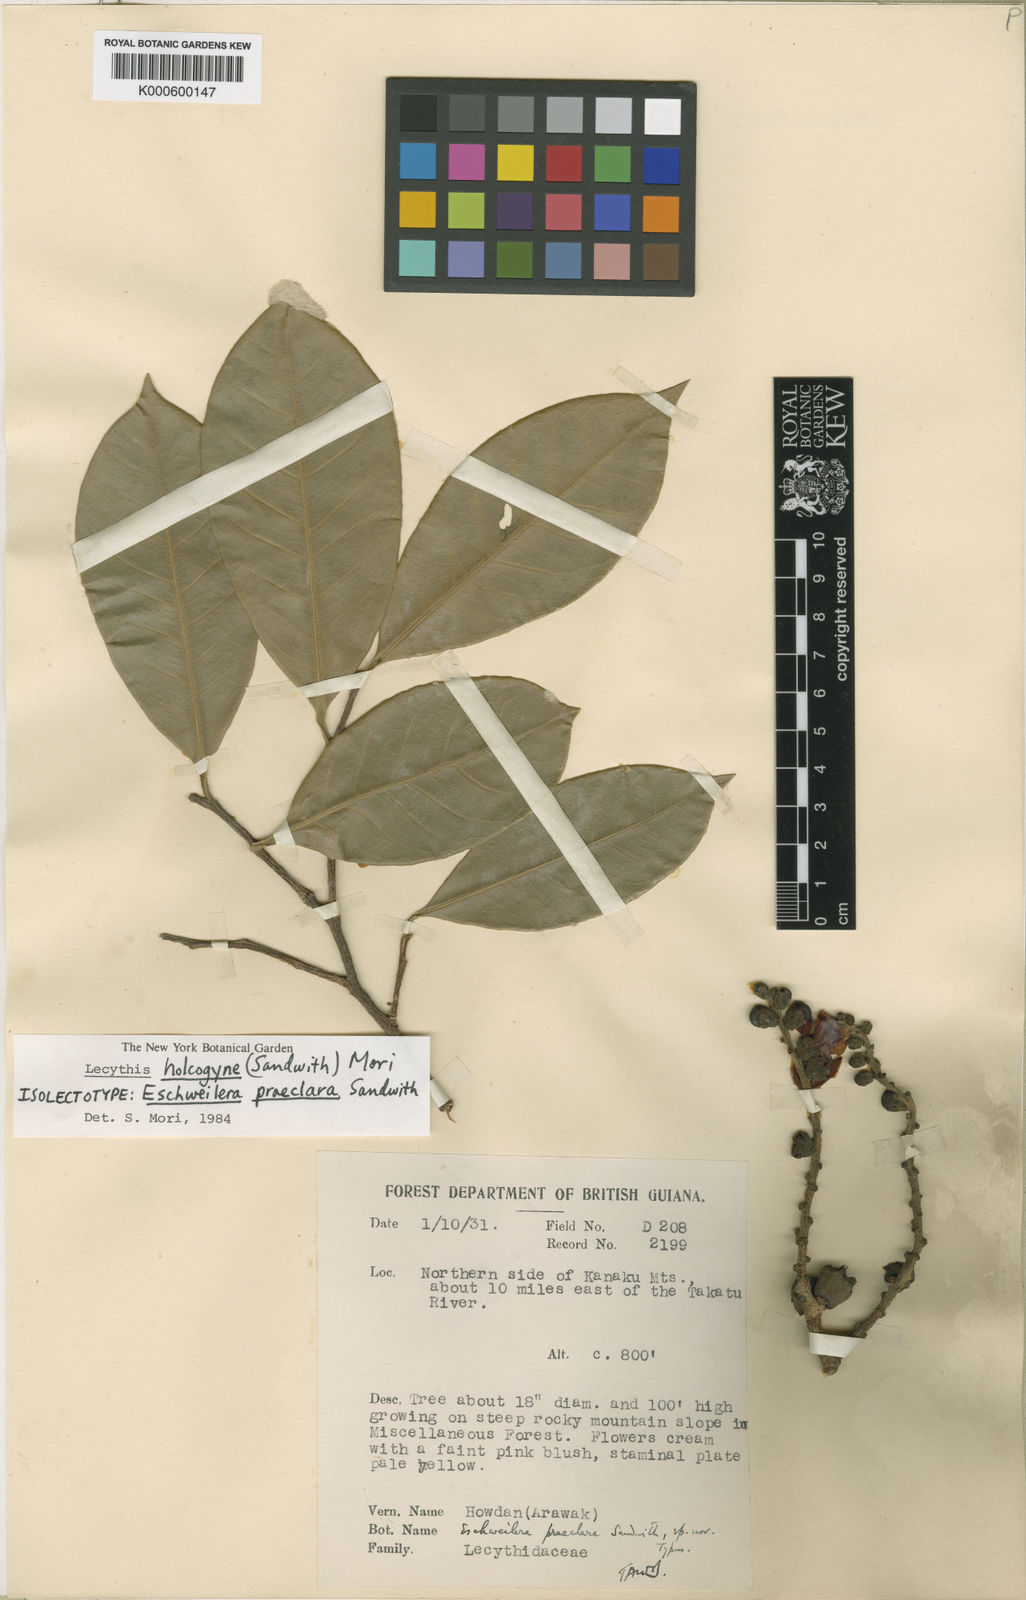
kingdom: Plantae
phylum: Tracheophyta
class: Magnoliopsida
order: Ericales
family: Lecythidaceae
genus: Lecythis
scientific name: Lecythis holcogyne
